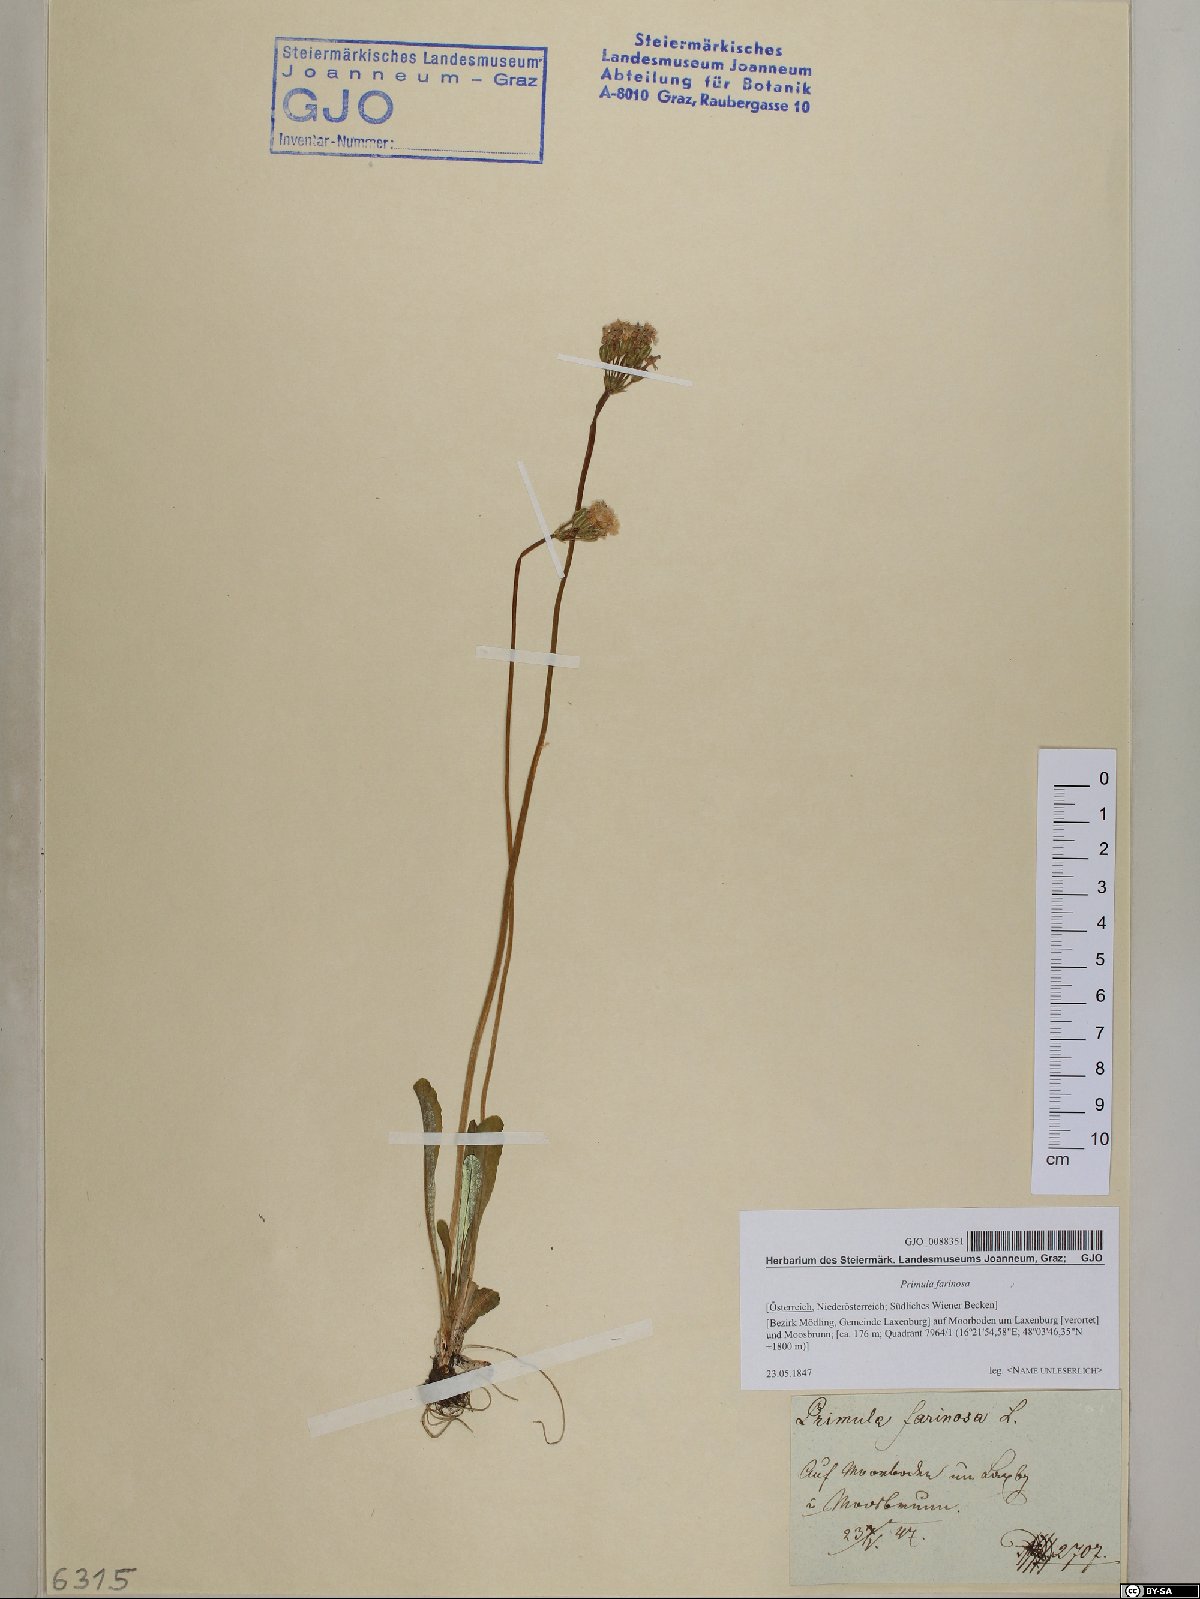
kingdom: Plantae
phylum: Tracheophyta
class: Magnoliopsida
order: Ericales
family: Primulaceae
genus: Primula
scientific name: Primula farinosa
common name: Bird's-eye primrose
